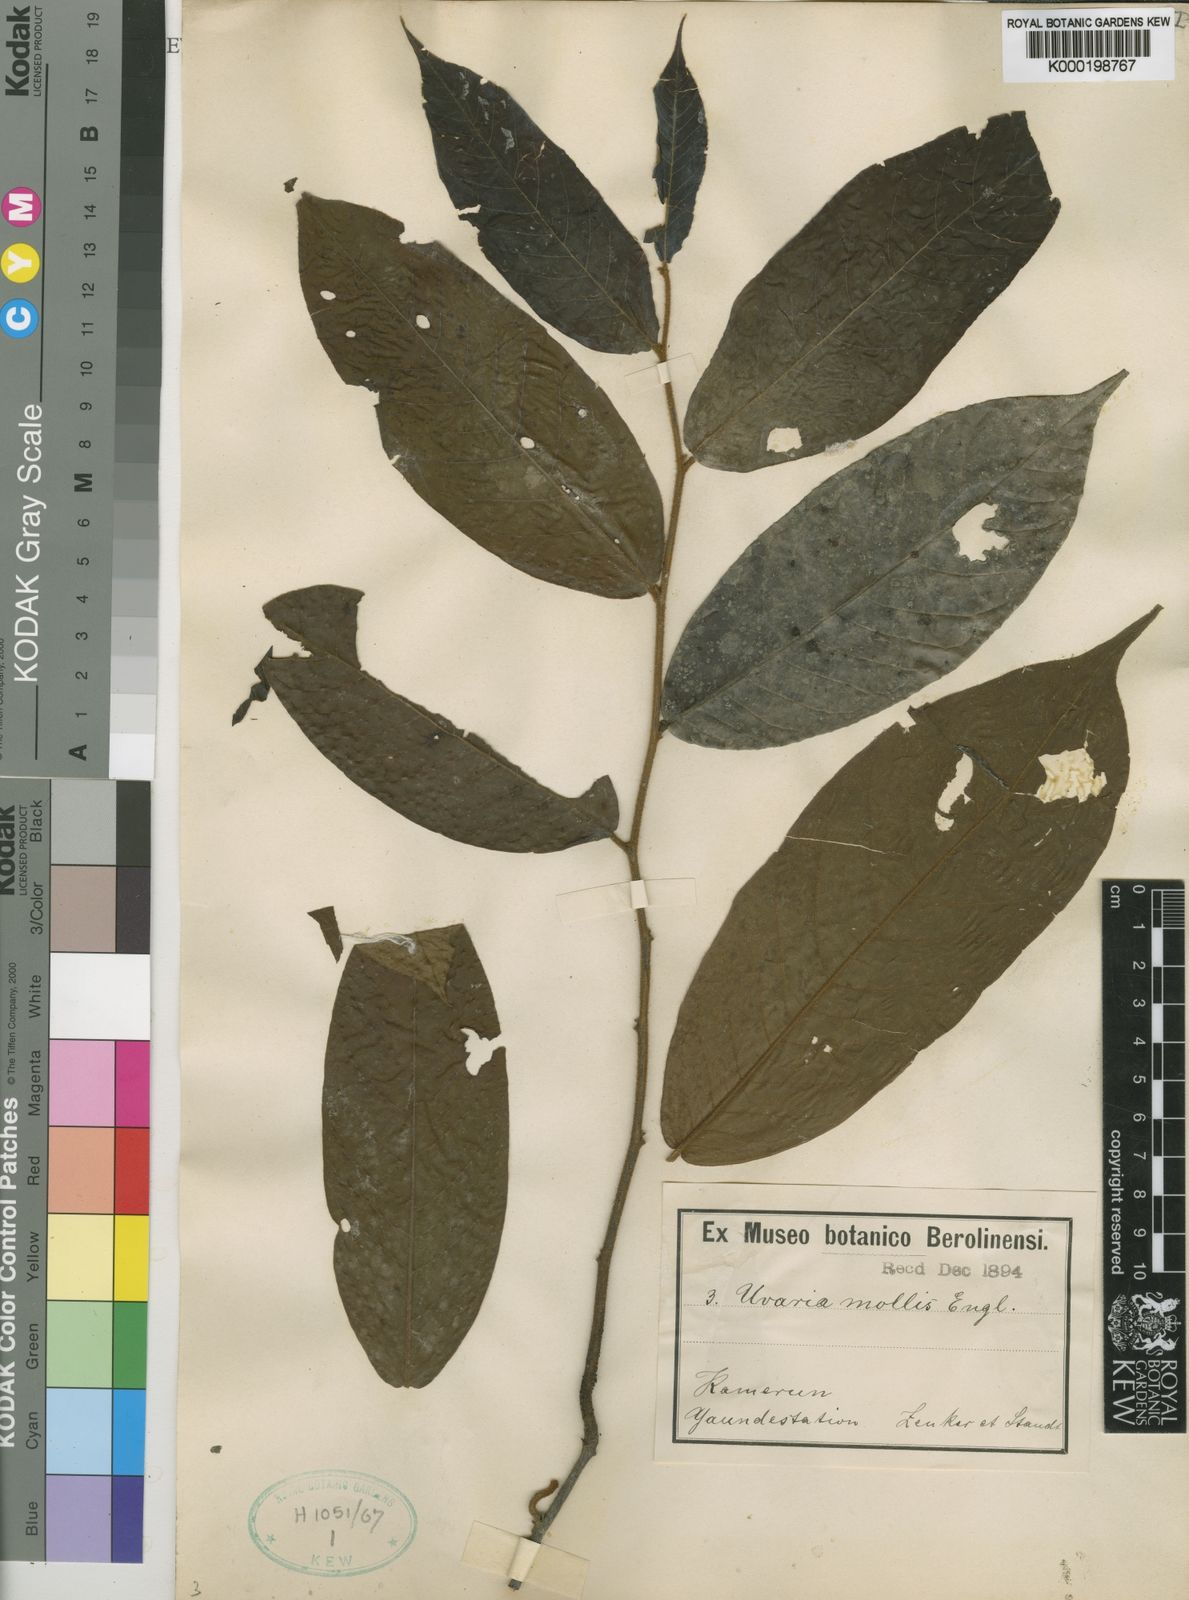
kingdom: Plantae
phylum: Tracheophyta
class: Magnoliopsida
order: Magnoliales
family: Annonaceae
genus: Uvaria
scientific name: Uvaria mollis
